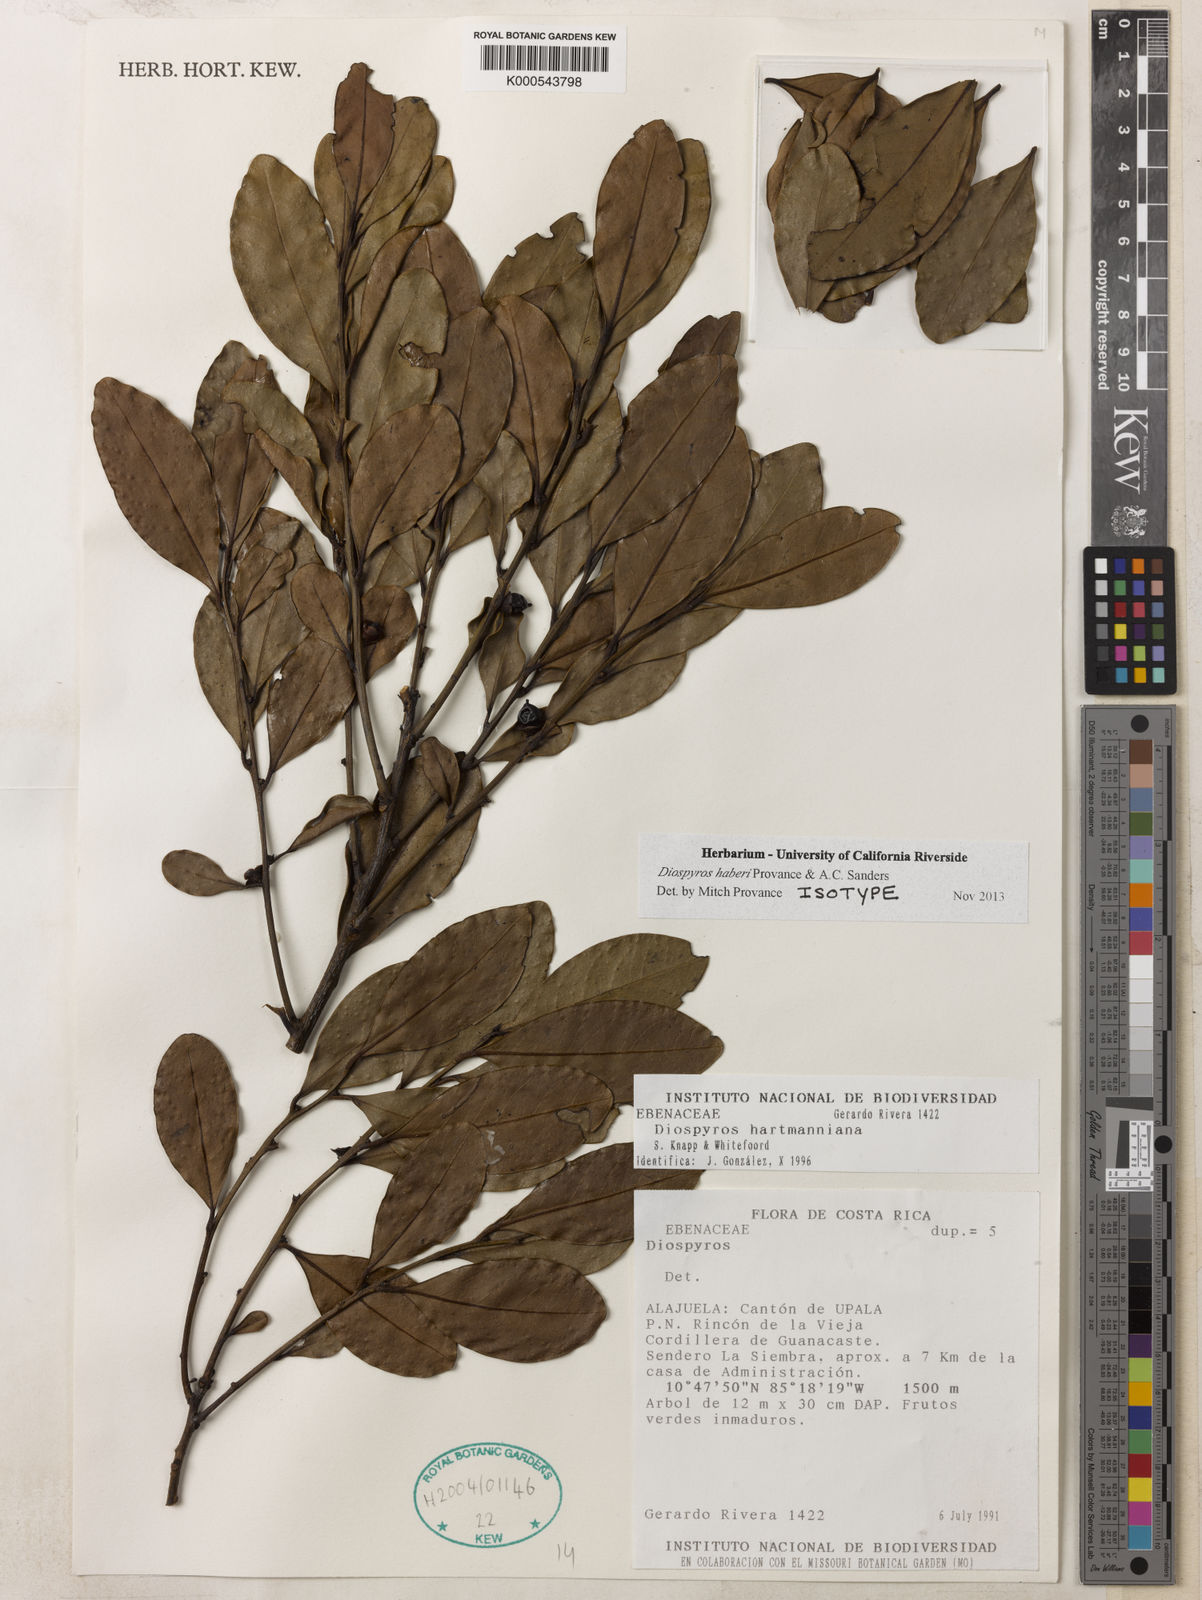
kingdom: Plantae
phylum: Tracheophyta
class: Magnoliopsida
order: Ericales
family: Ebenaceae
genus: Diospyros
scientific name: Diospyros juruensis
